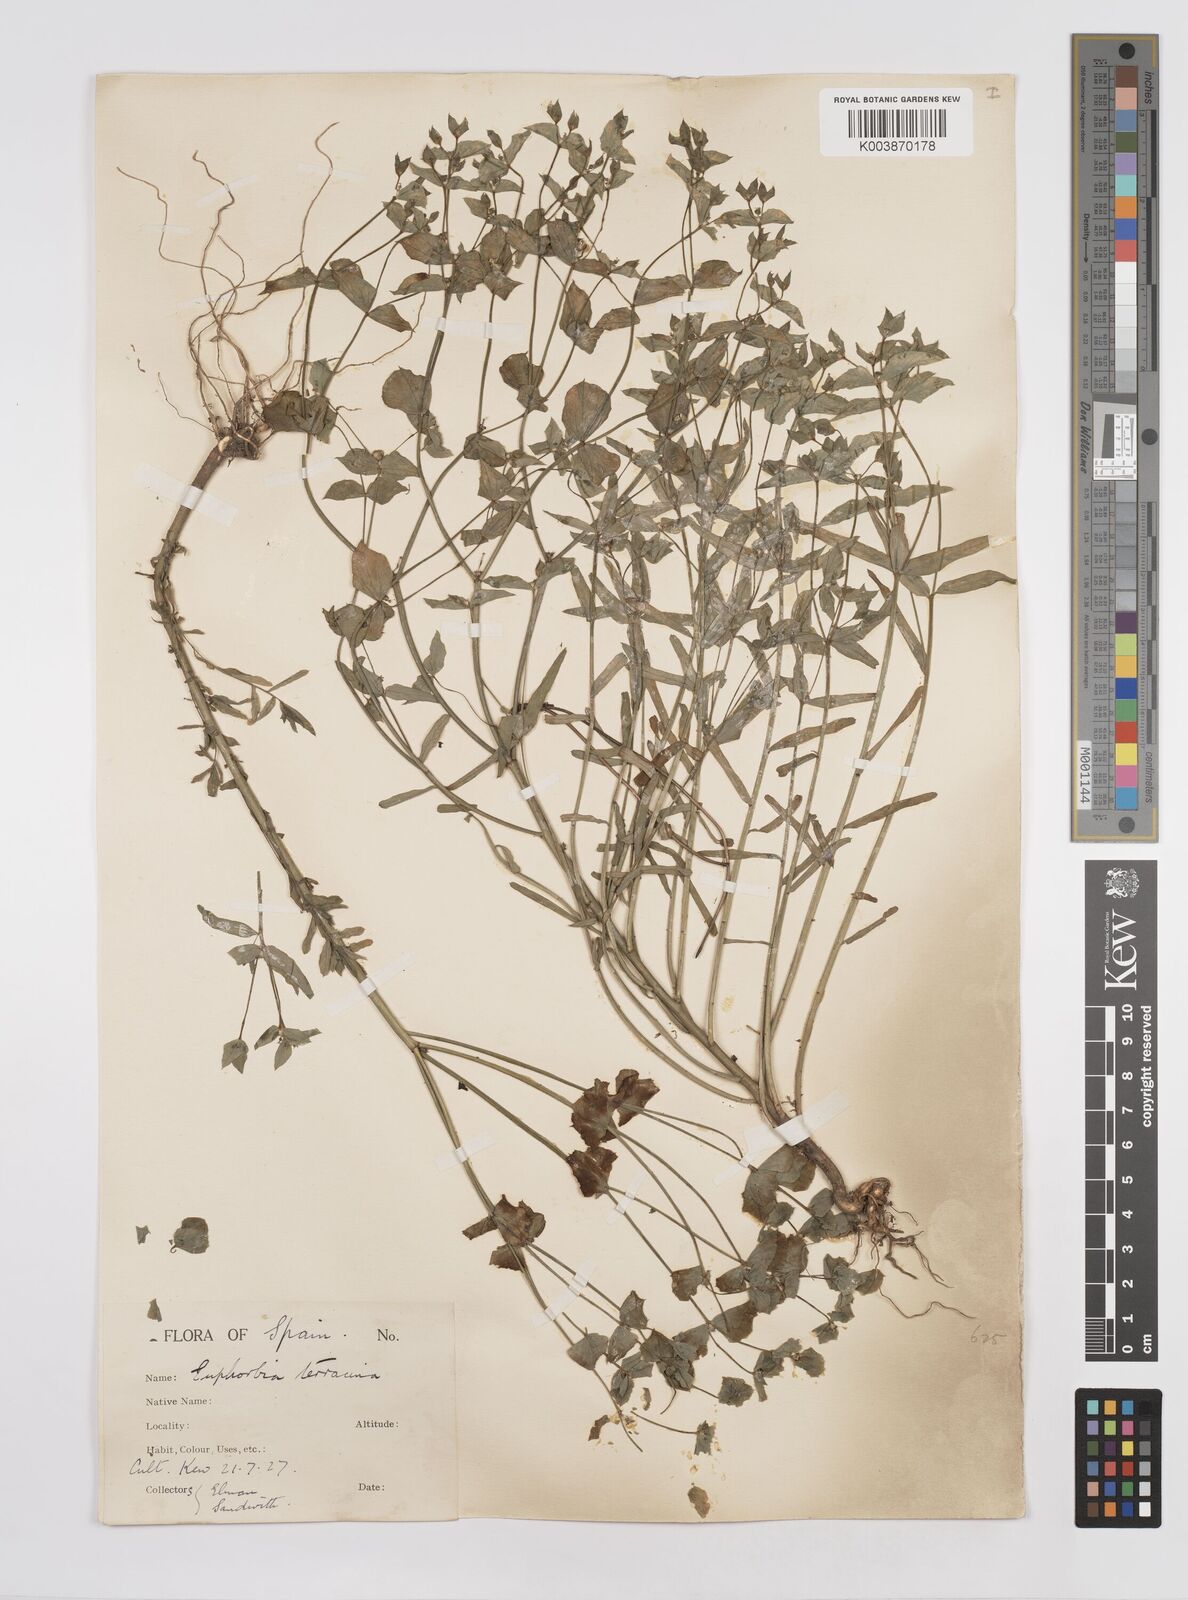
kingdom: Plantae
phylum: Tracheophyta
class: Magnoliopsida
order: Malpighiales
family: Euphorbiaceae
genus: Euphorbia
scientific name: Euphorbia terracina
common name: Geraldton carnation weed
